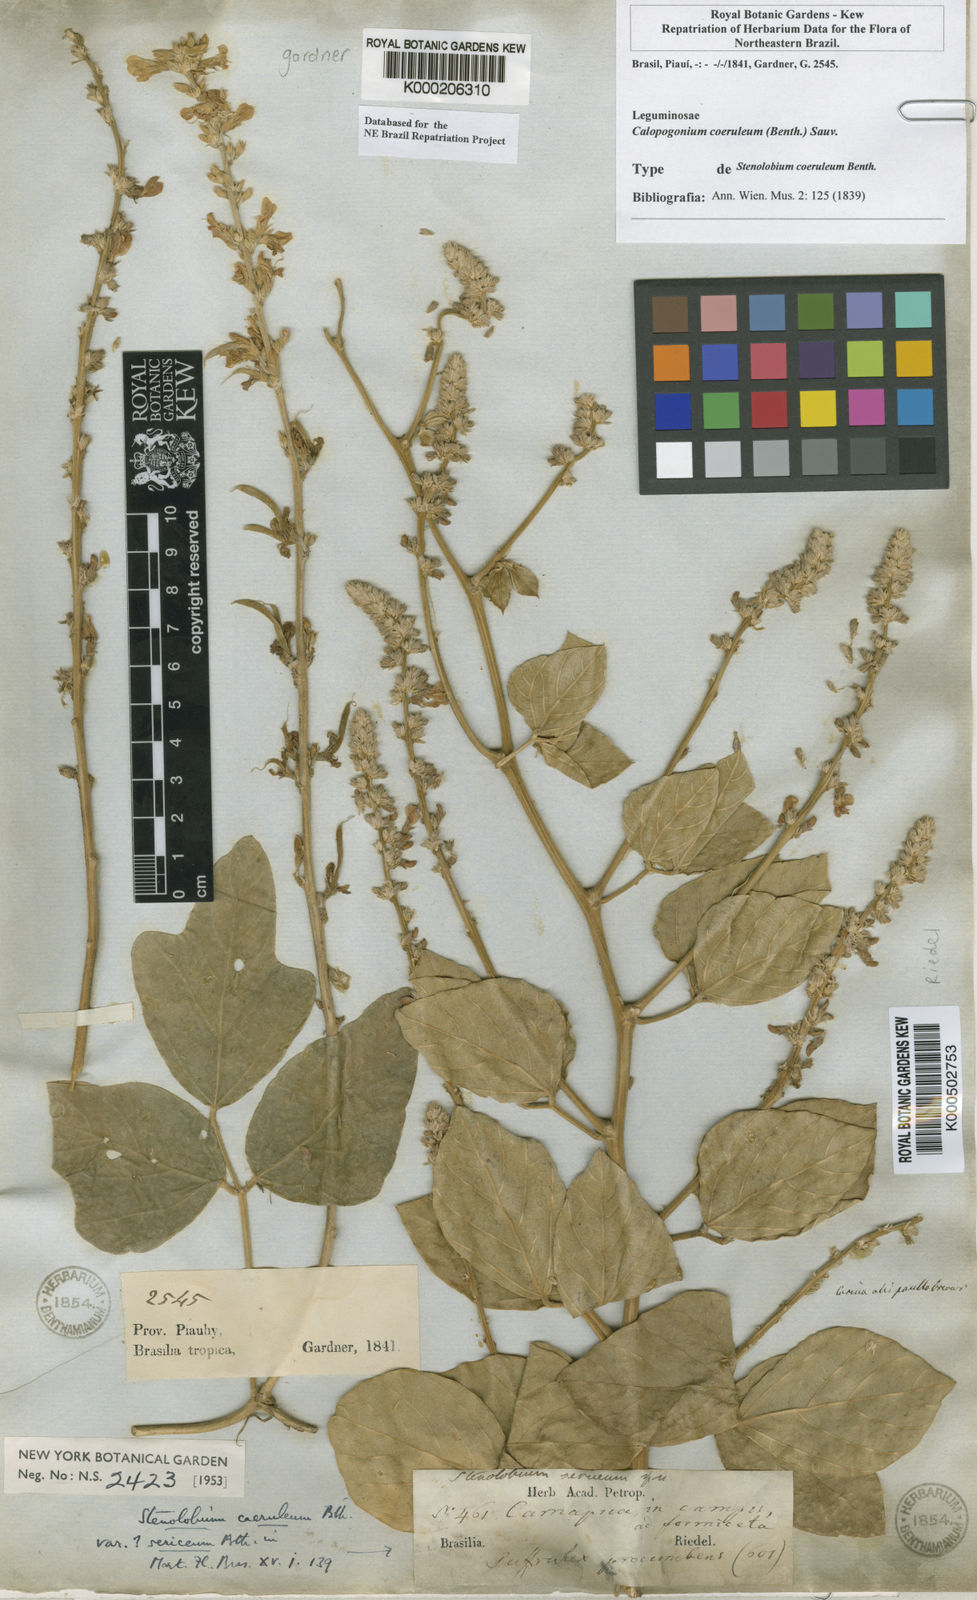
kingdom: Plantae
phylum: Tracheophyta
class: Magnoliopsida
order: Fabales
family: Fabaceae
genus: Calopogonium
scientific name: Calopogonium
